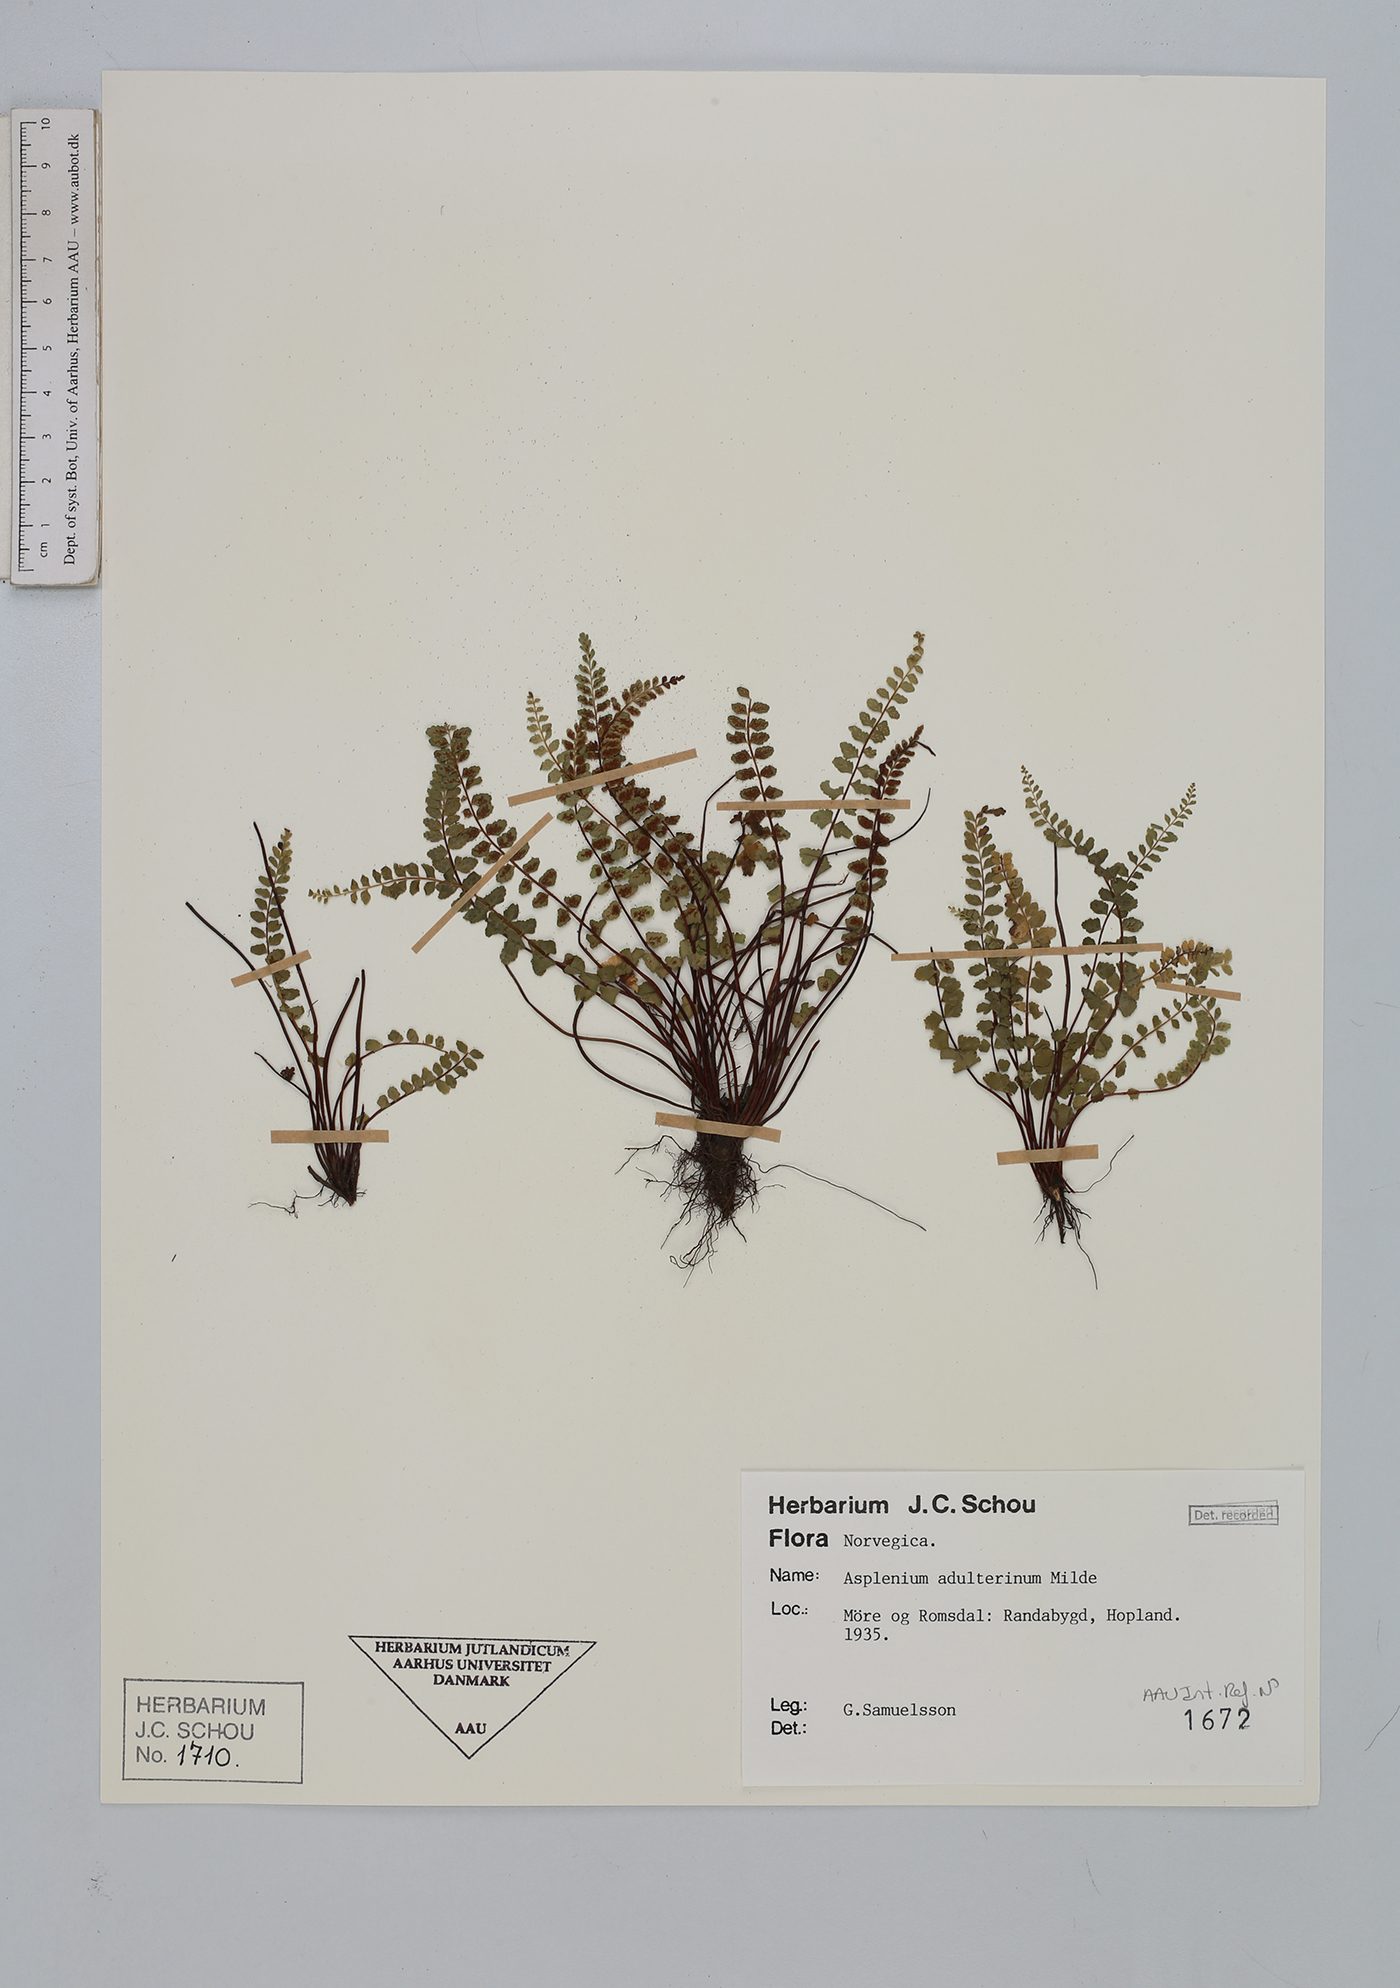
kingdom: Plantae
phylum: Tracheophyta
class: Polypodiopsida
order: Polypodiales
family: Aspleniaceae
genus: Asplenium
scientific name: Asplenium adulterinum
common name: Adulterated spleenwort
